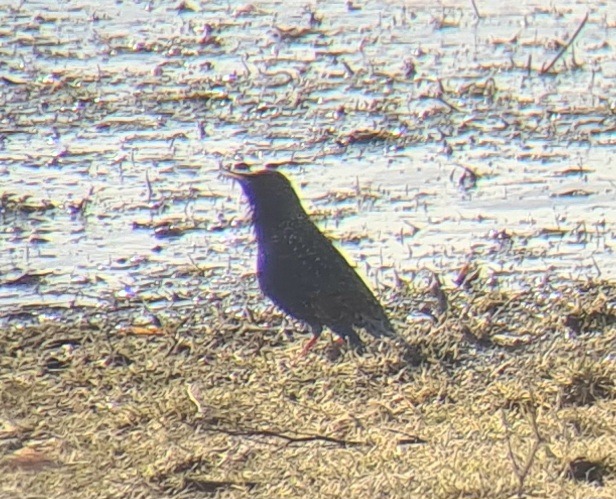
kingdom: Animalia
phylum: Chordata
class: Aves
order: Passeriformes
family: Sturnidae
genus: Sturnus
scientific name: Sturnus vulgaris
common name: Stær
